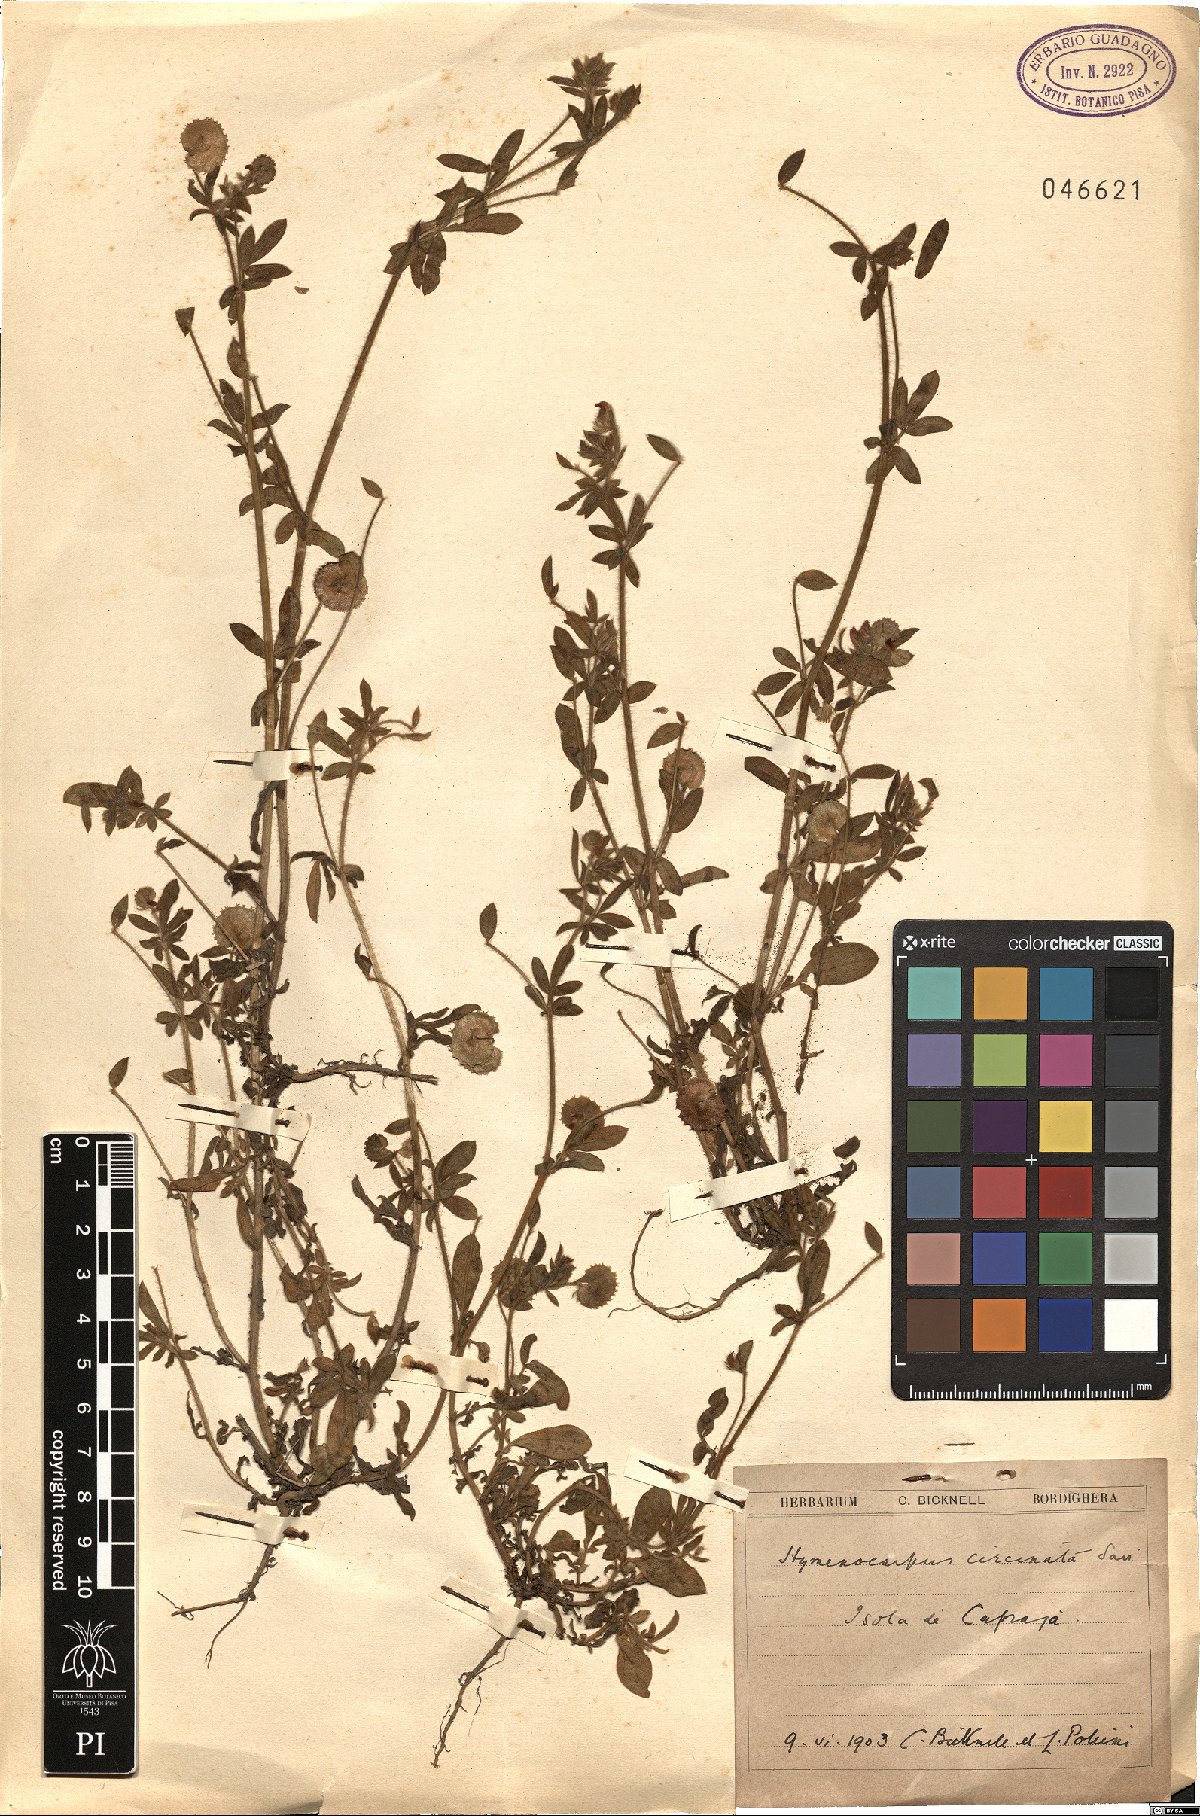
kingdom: Plantae
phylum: Tracheophyta
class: Magnoliopsida
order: Fabales
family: Fabaceae
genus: Anthyllis
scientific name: Anthyllis circinnata
